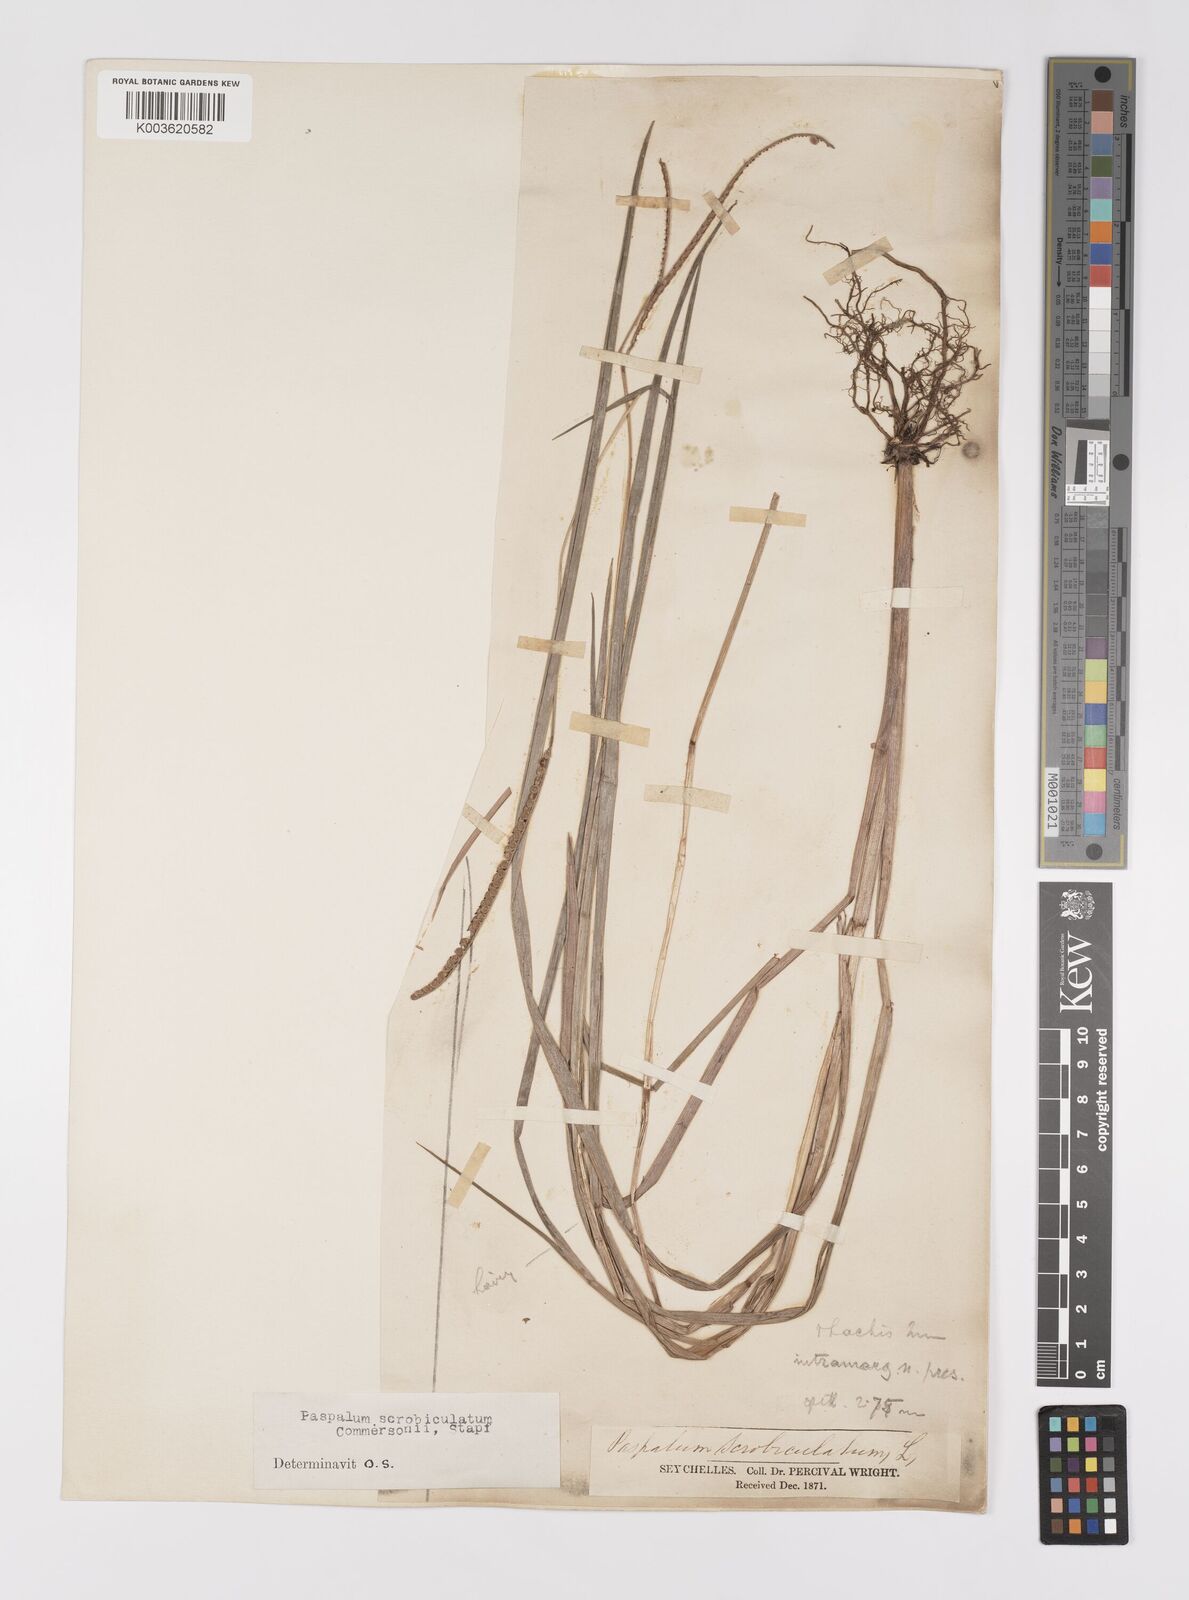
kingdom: Plantae
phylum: Tracheophyta
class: Liliopsida
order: Poales
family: Poaceae
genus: Paspalum
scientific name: Paspalum scrobiculatum
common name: Kodo millet
